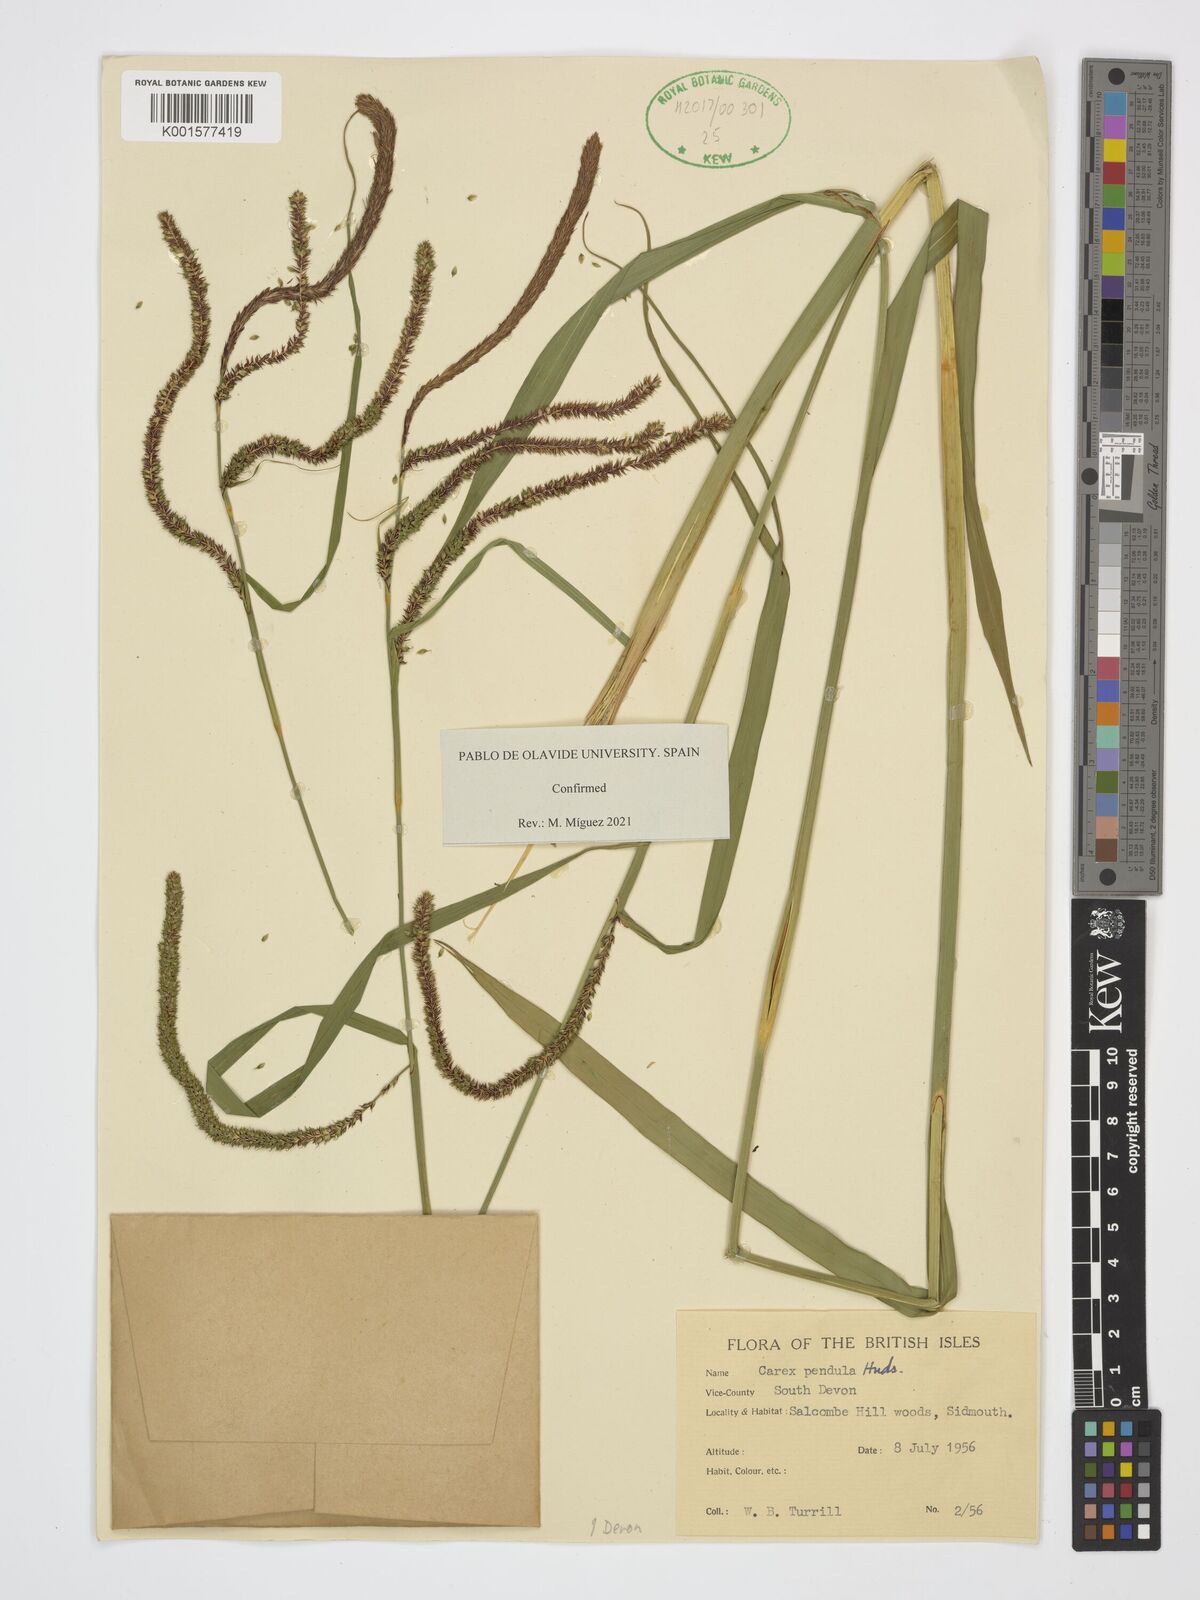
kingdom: Plantae
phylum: Tracheophyta
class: Liliopsida
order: Poales
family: Cyperaceae
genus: Carex
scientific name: Carex pendula
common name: Pendulous sedge
